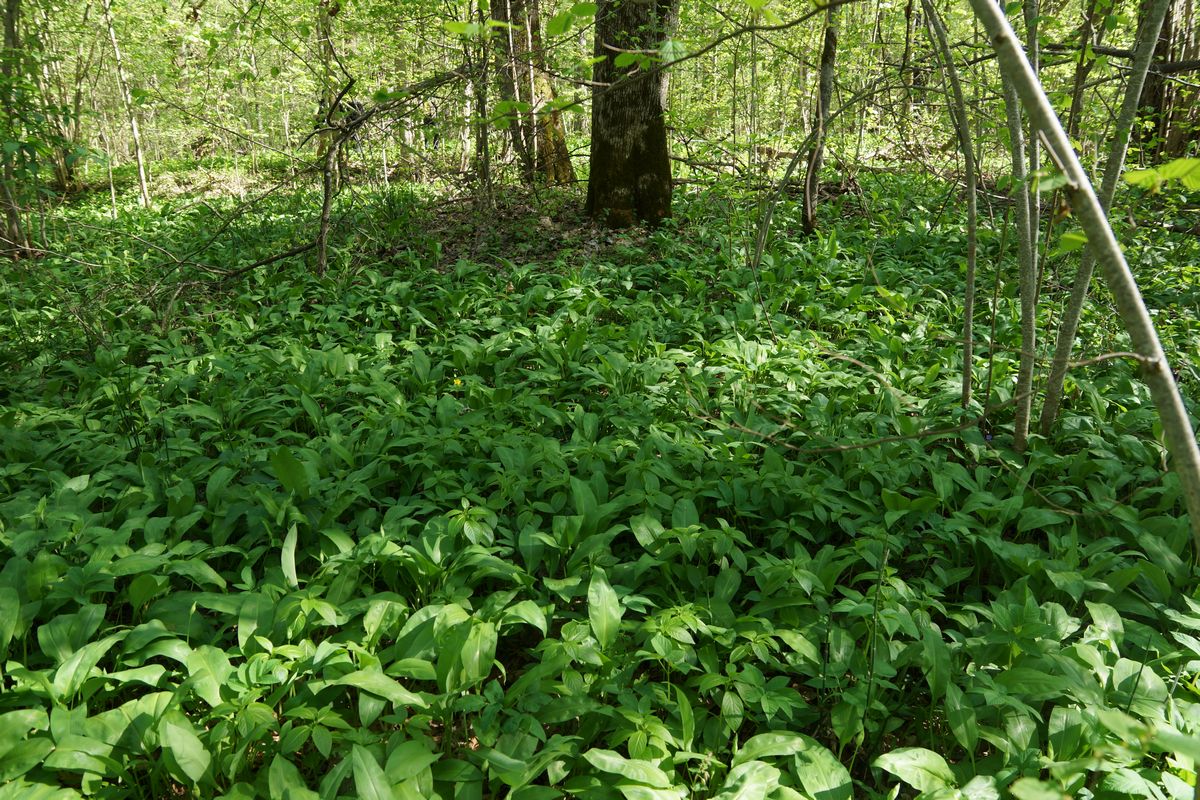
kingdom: Plantae
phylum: Tracheophyta
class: Liliopsida
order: Asparagales
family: Amaryllidaceae
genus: Allium
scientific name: Allium microdictyon
